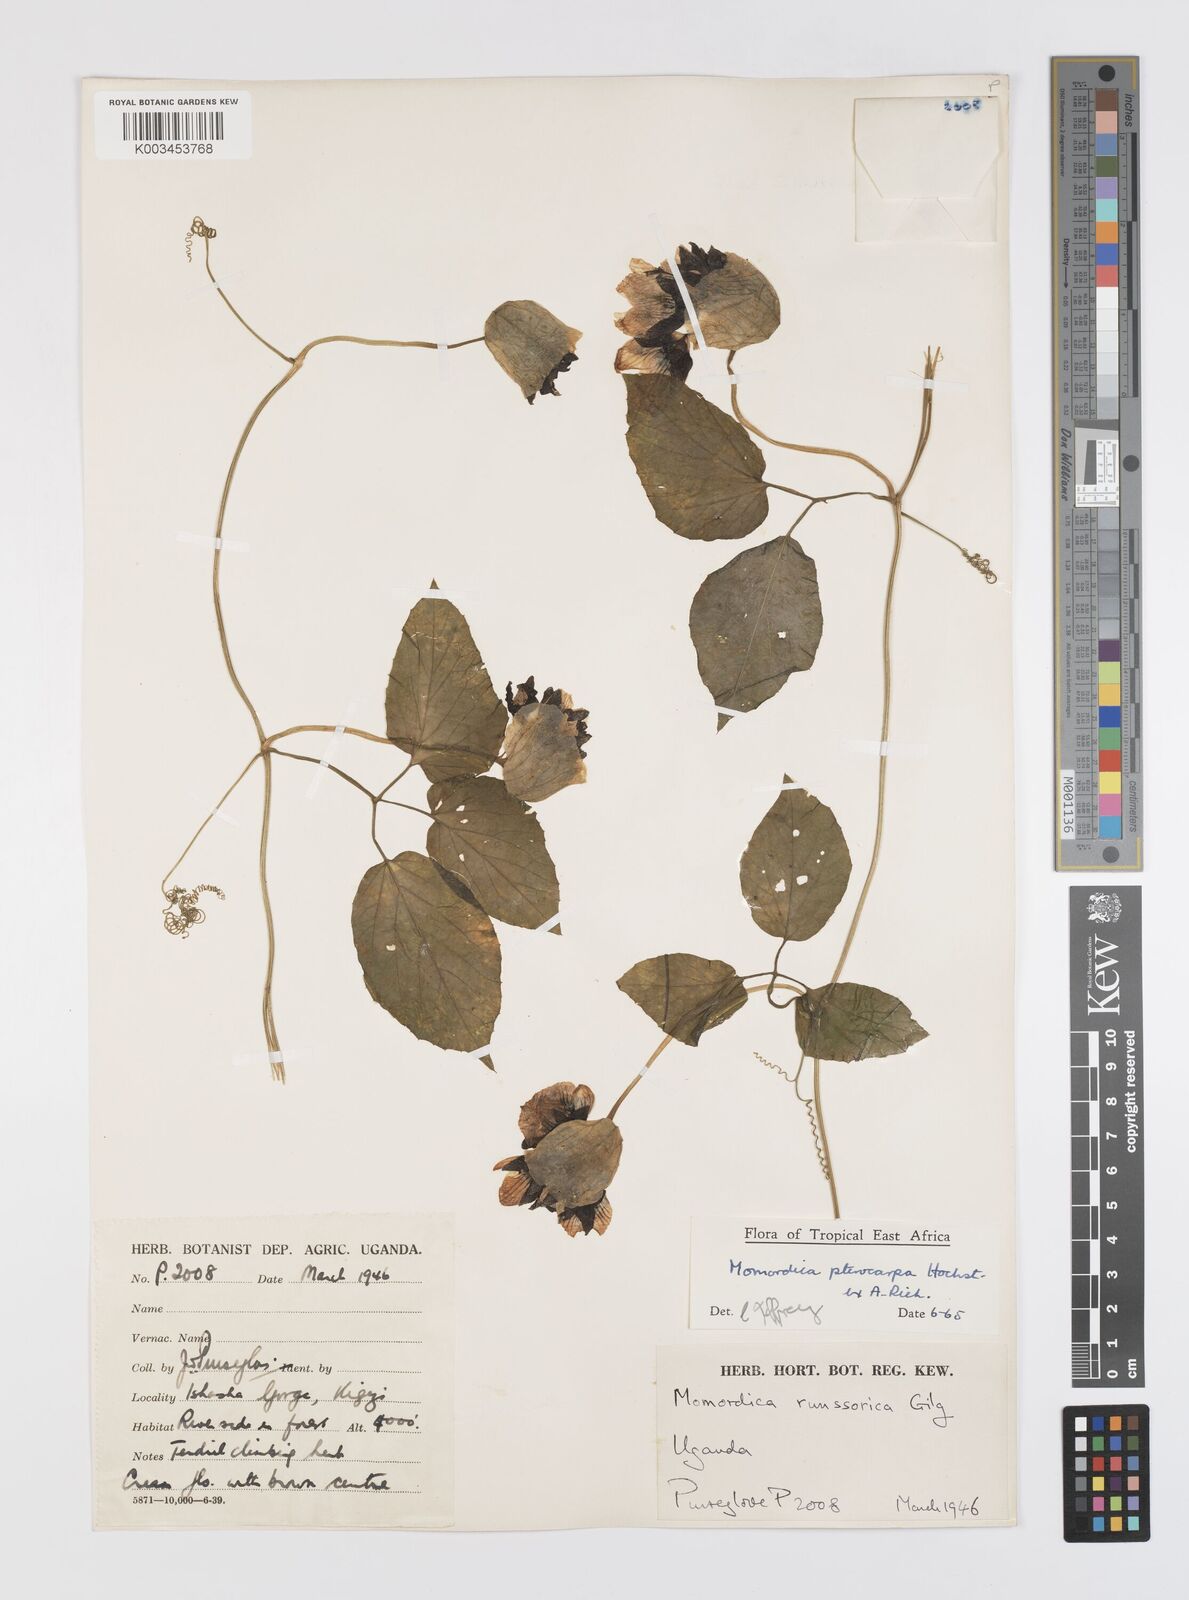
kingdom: Plantae
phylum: Tracheophyta
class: Magnoliopsida
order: Cucurbitales
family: Cucurbitaceae
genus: Momordica
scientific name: Momordica pterocarpa
